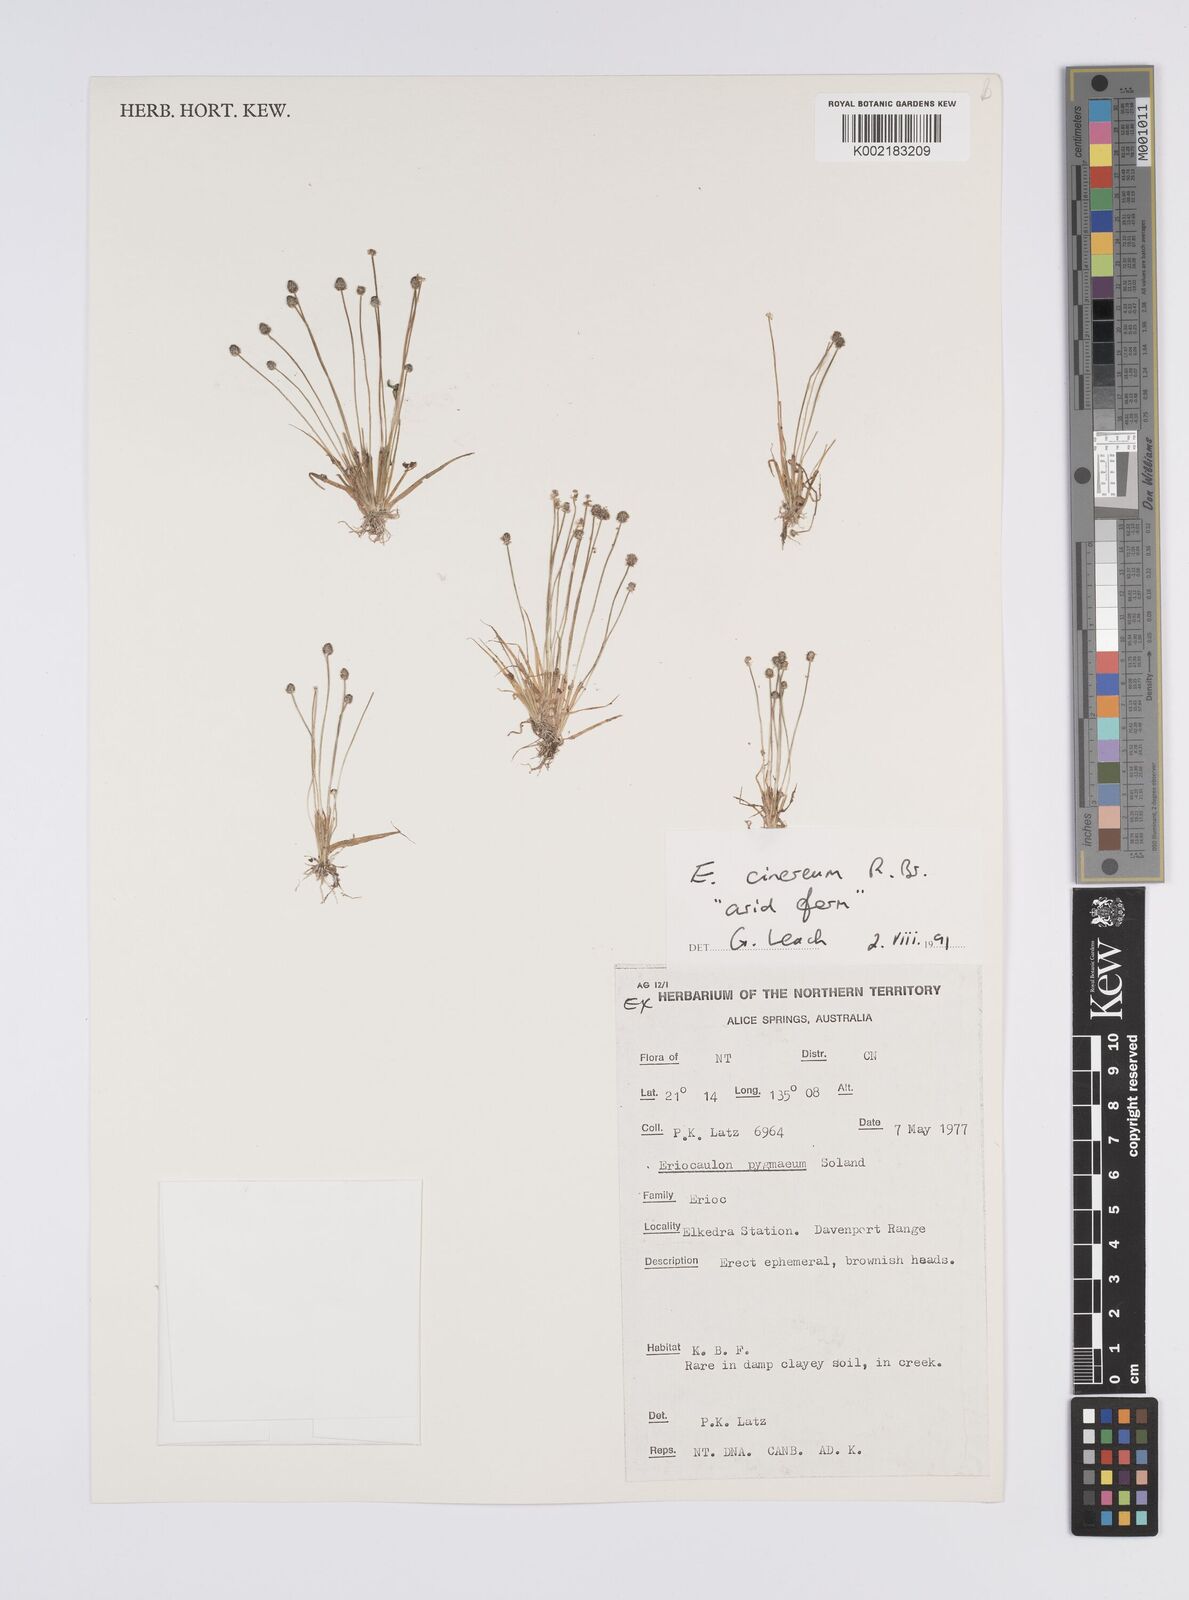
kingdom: Plantae
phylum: Tracheophyta
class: Liliopsida
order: Poales
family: Eriocaulaceae
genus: Eriocaulon
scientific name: Eriocaulon cinereum
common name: Ashy pipewort
